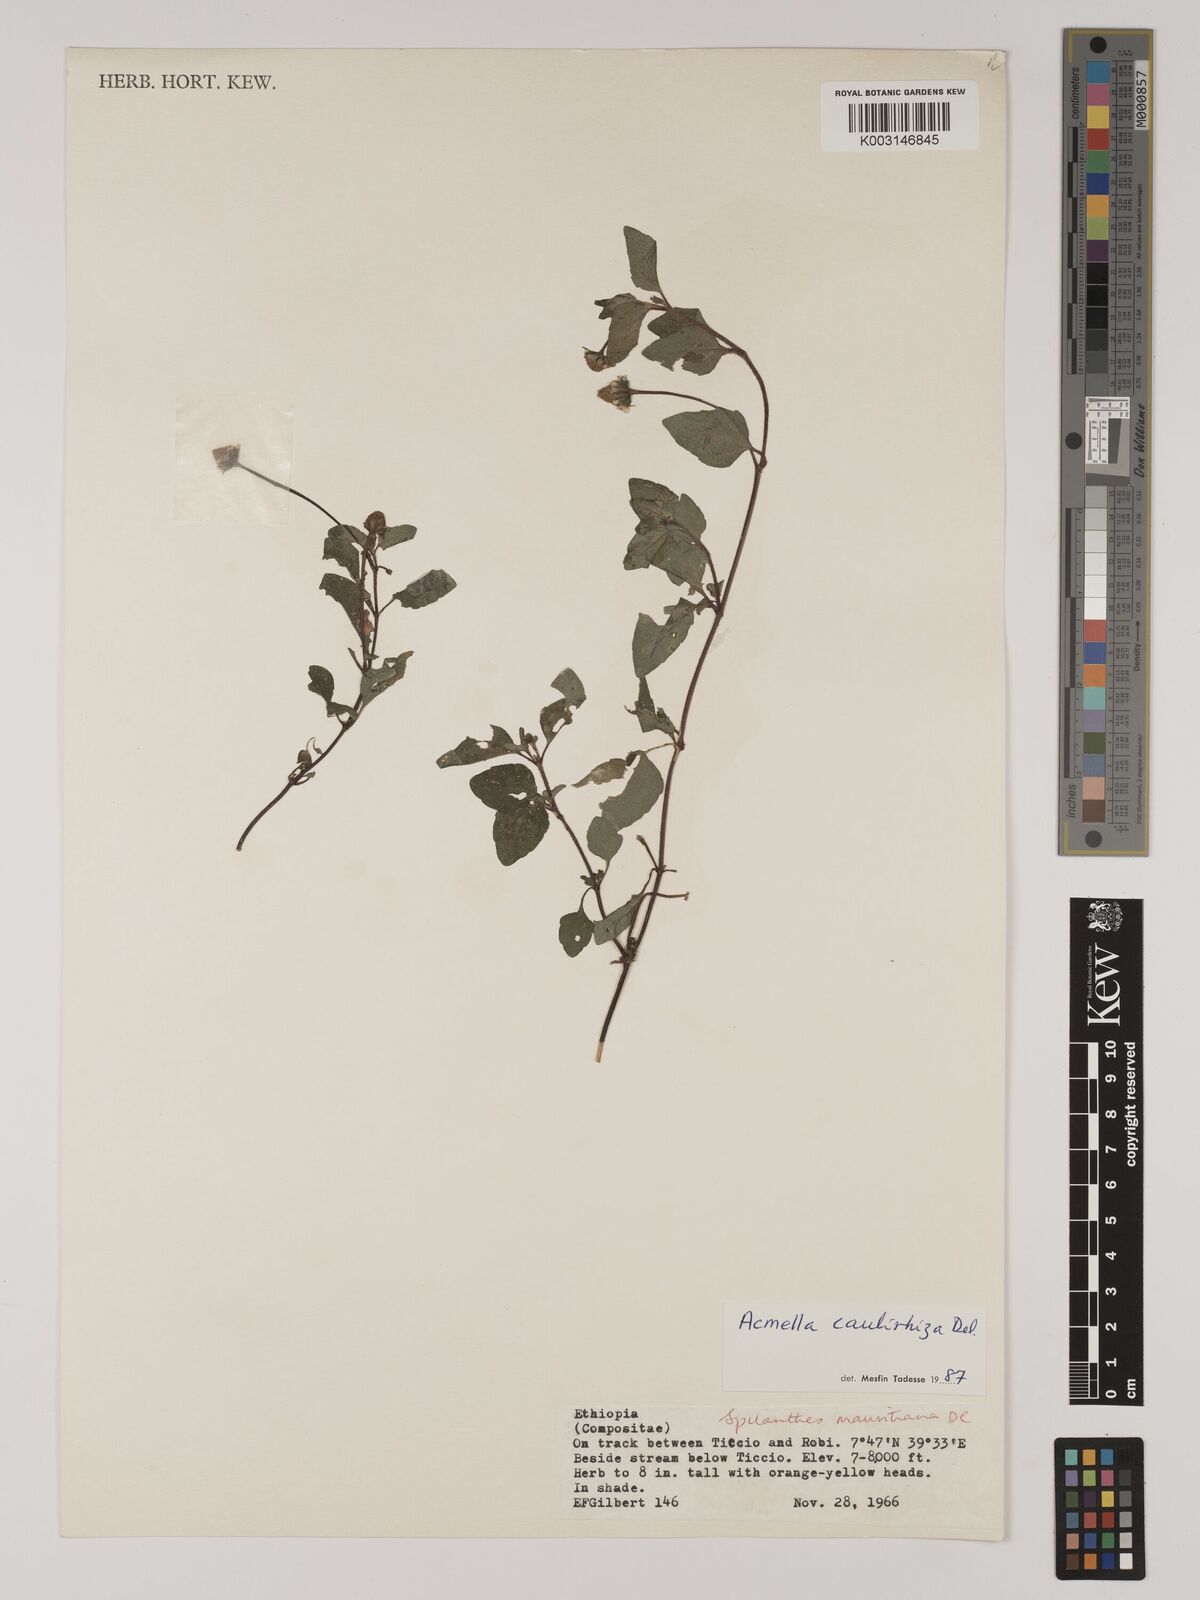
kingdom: Plantae
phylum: Tracheophyta
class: Magnoliopsida
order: Asterales
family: Asteraceae
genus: Acmella
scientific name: Acmella caulirhiza
